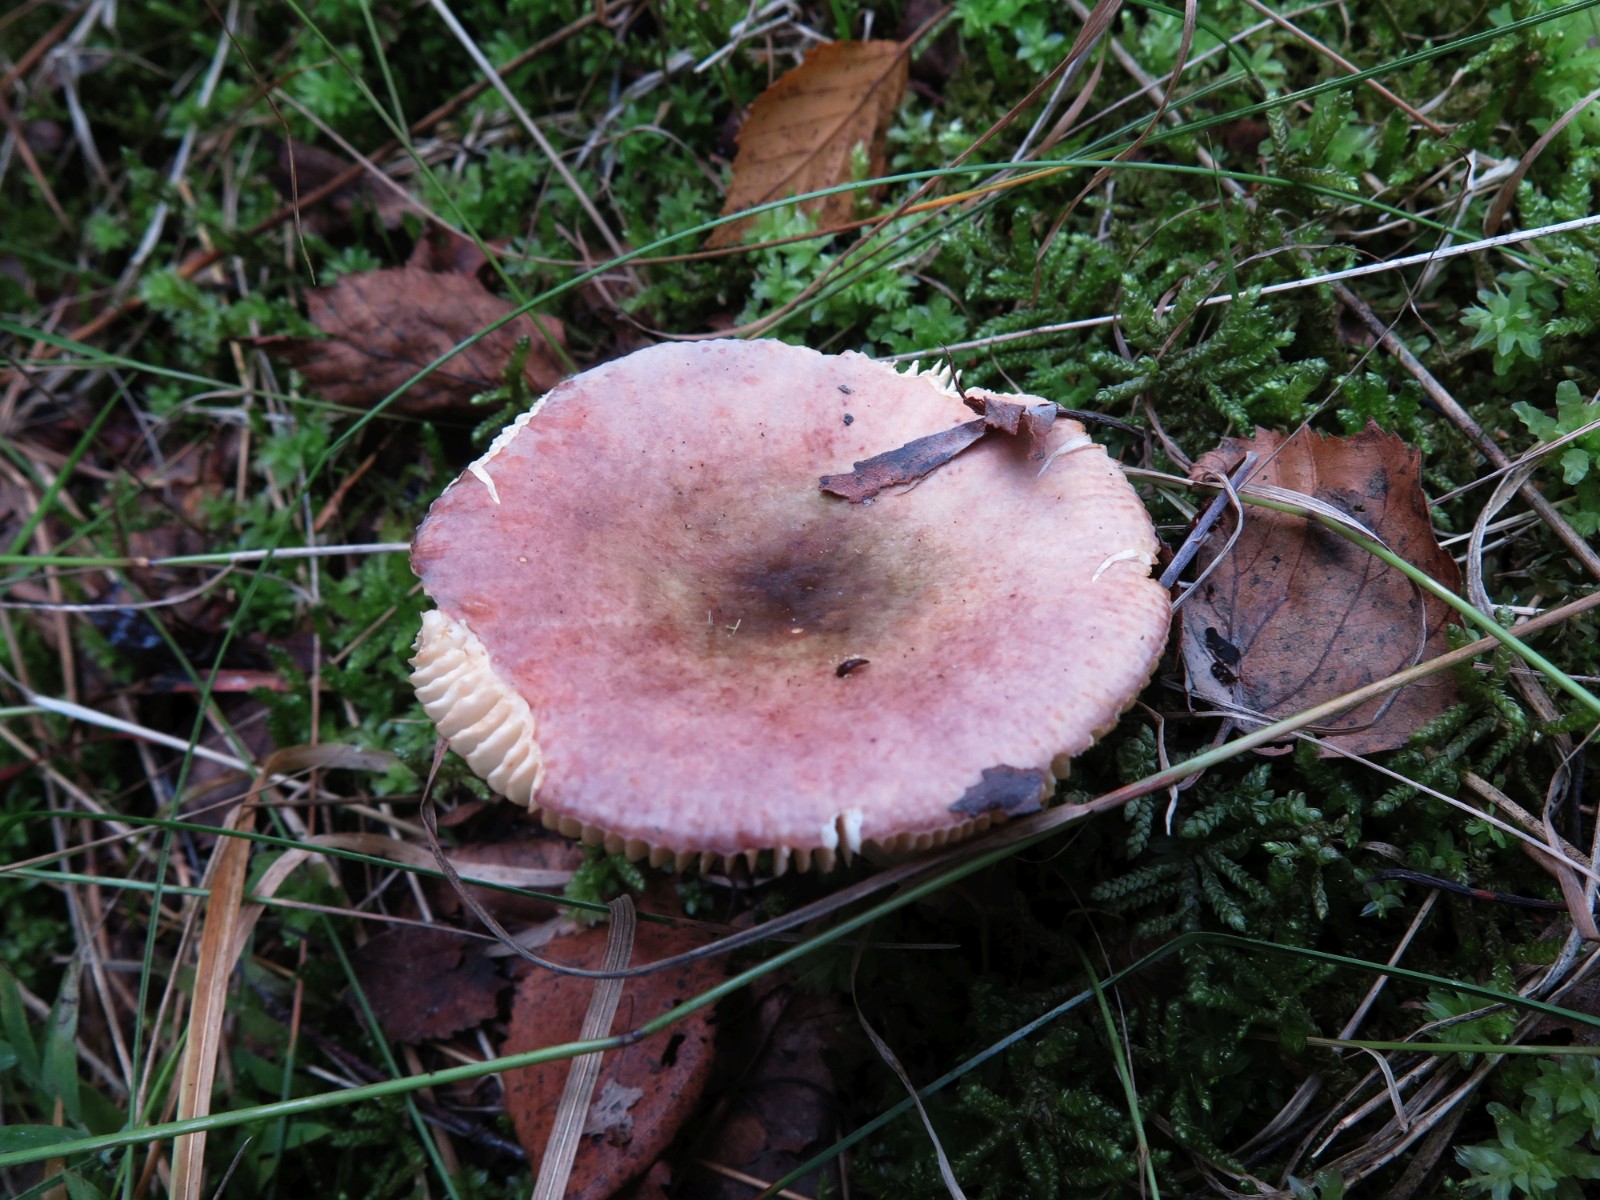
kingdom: Fungi
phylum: Basidiomycota
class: Agaricomycetes
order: Russulales
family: Russulaceae
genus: Russula
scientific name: Russula
